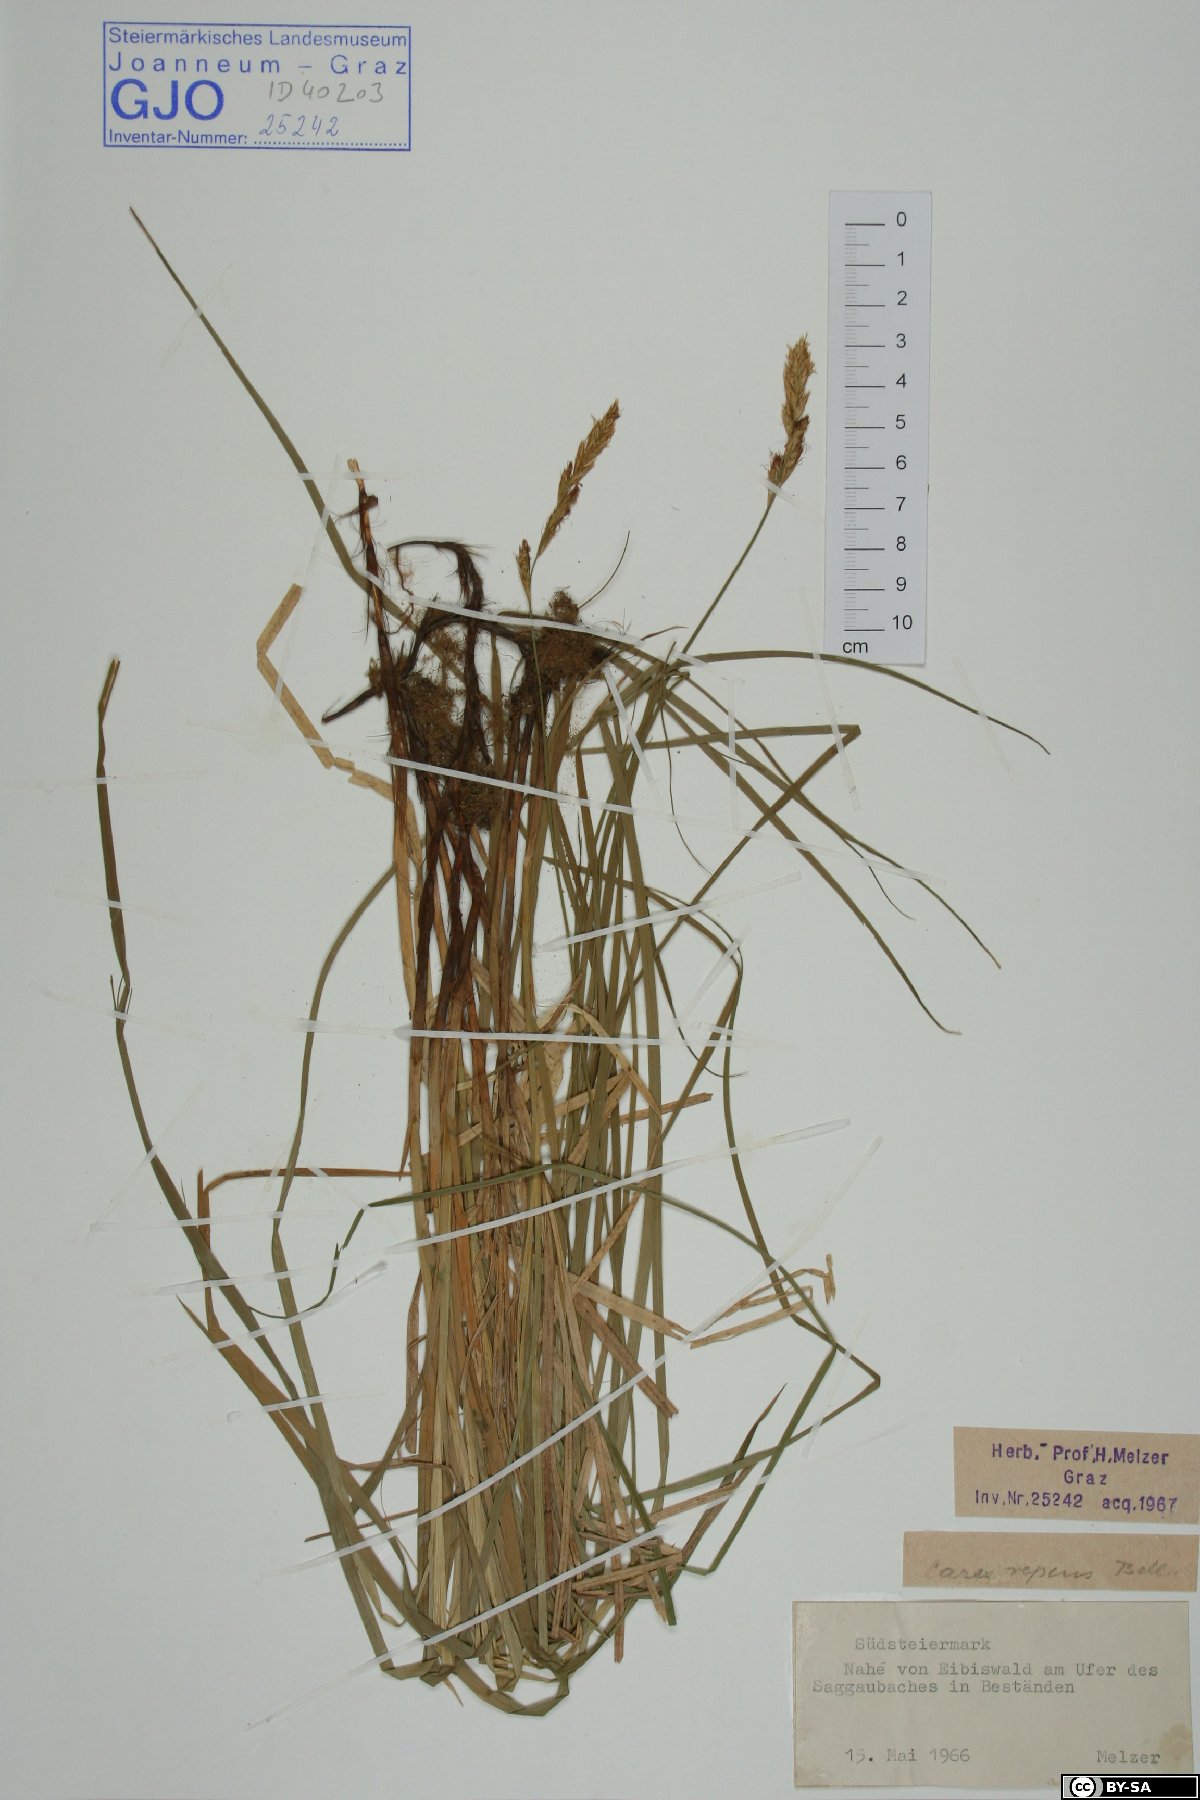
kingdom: Plantae
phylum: Tracheophyta
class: Liliopsida
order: Poales
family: Cyperaceae
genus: Carex
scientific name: Carex repens
